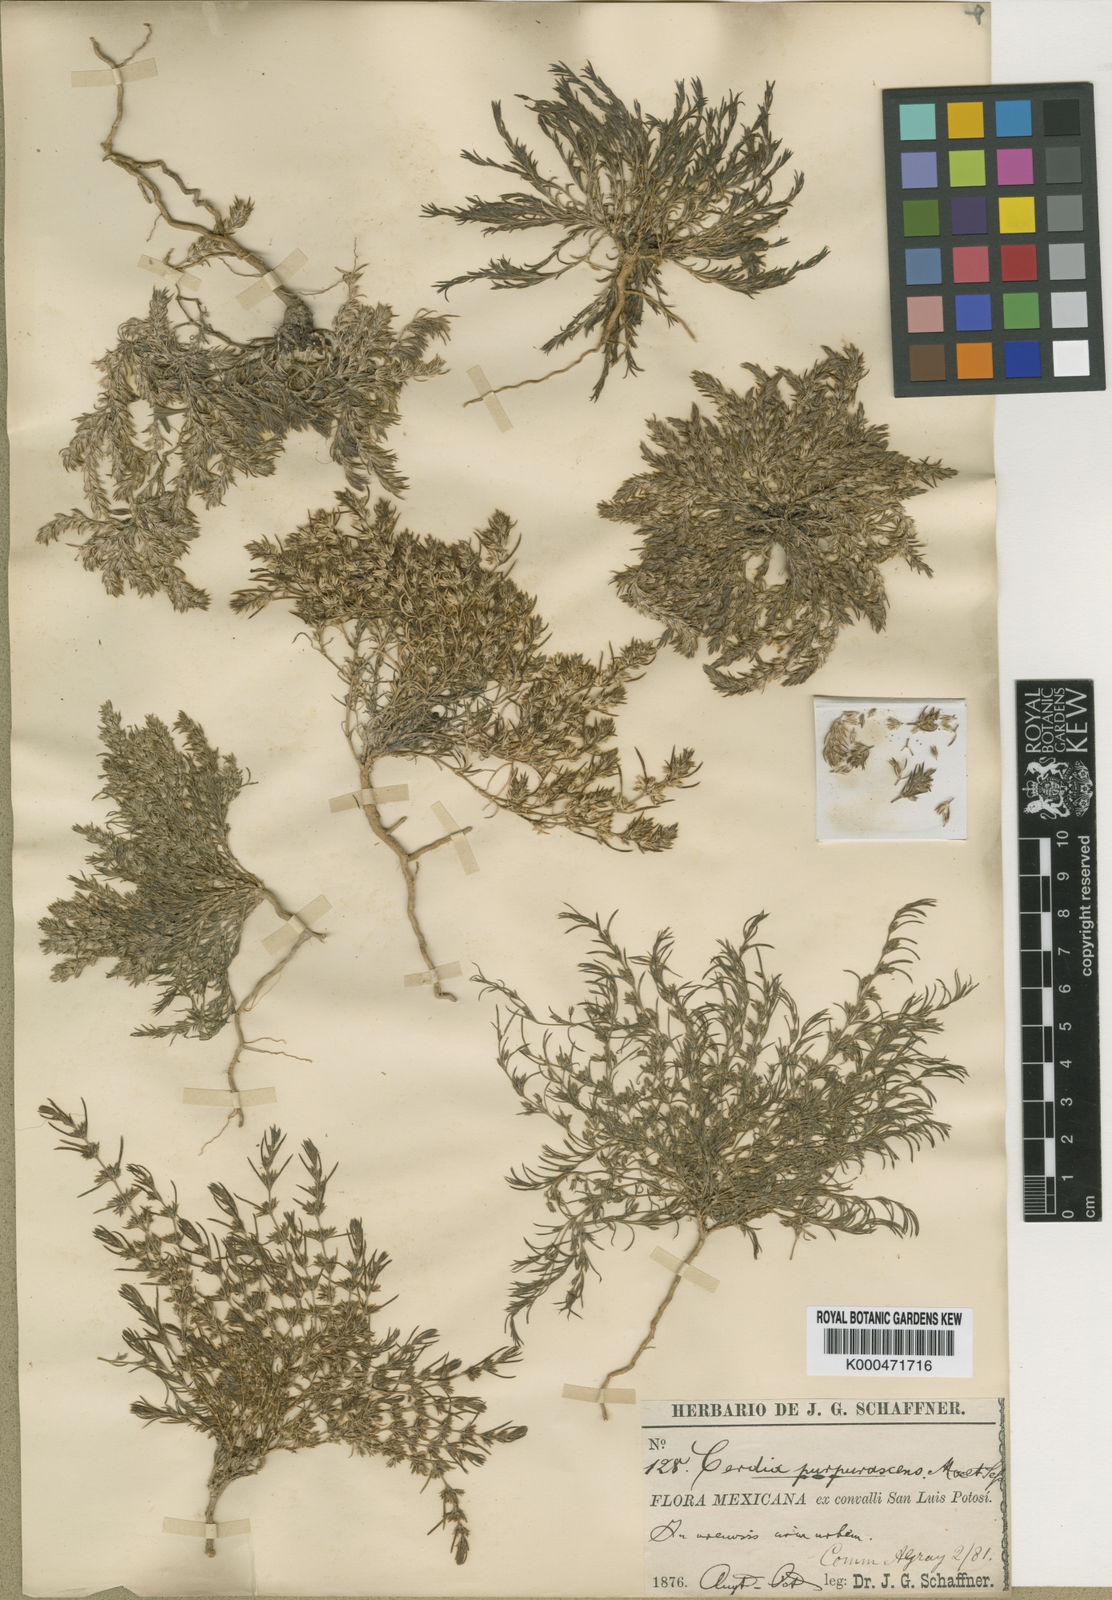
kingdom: Plantae
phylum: Tracheophyta
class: Magnoliopsida
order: Caryophyllales
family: Caryophyllaceae
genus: Cerdia
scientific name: Cerdia
